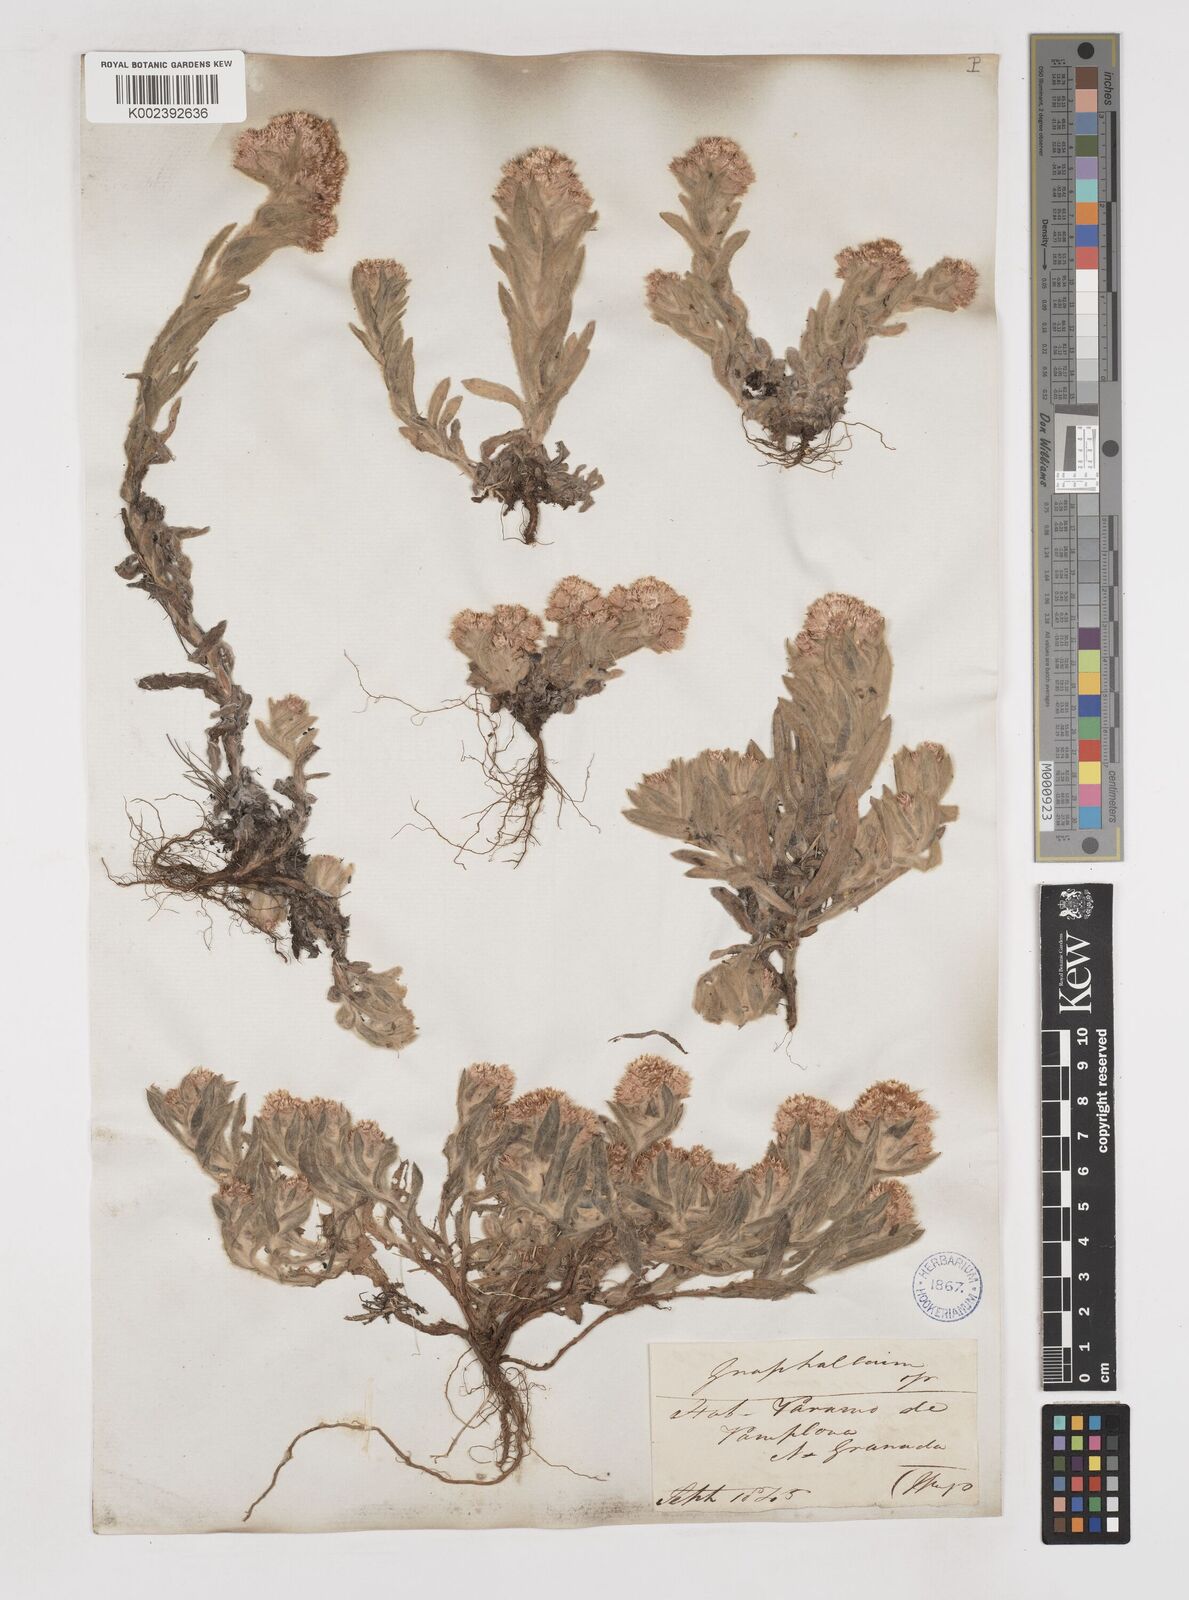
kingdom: Plantae
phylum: Tracheophyta
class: Magnoliopsida
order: Asterales
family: Asteraceae
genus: Gnaphalium
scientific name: Gnaphalium
